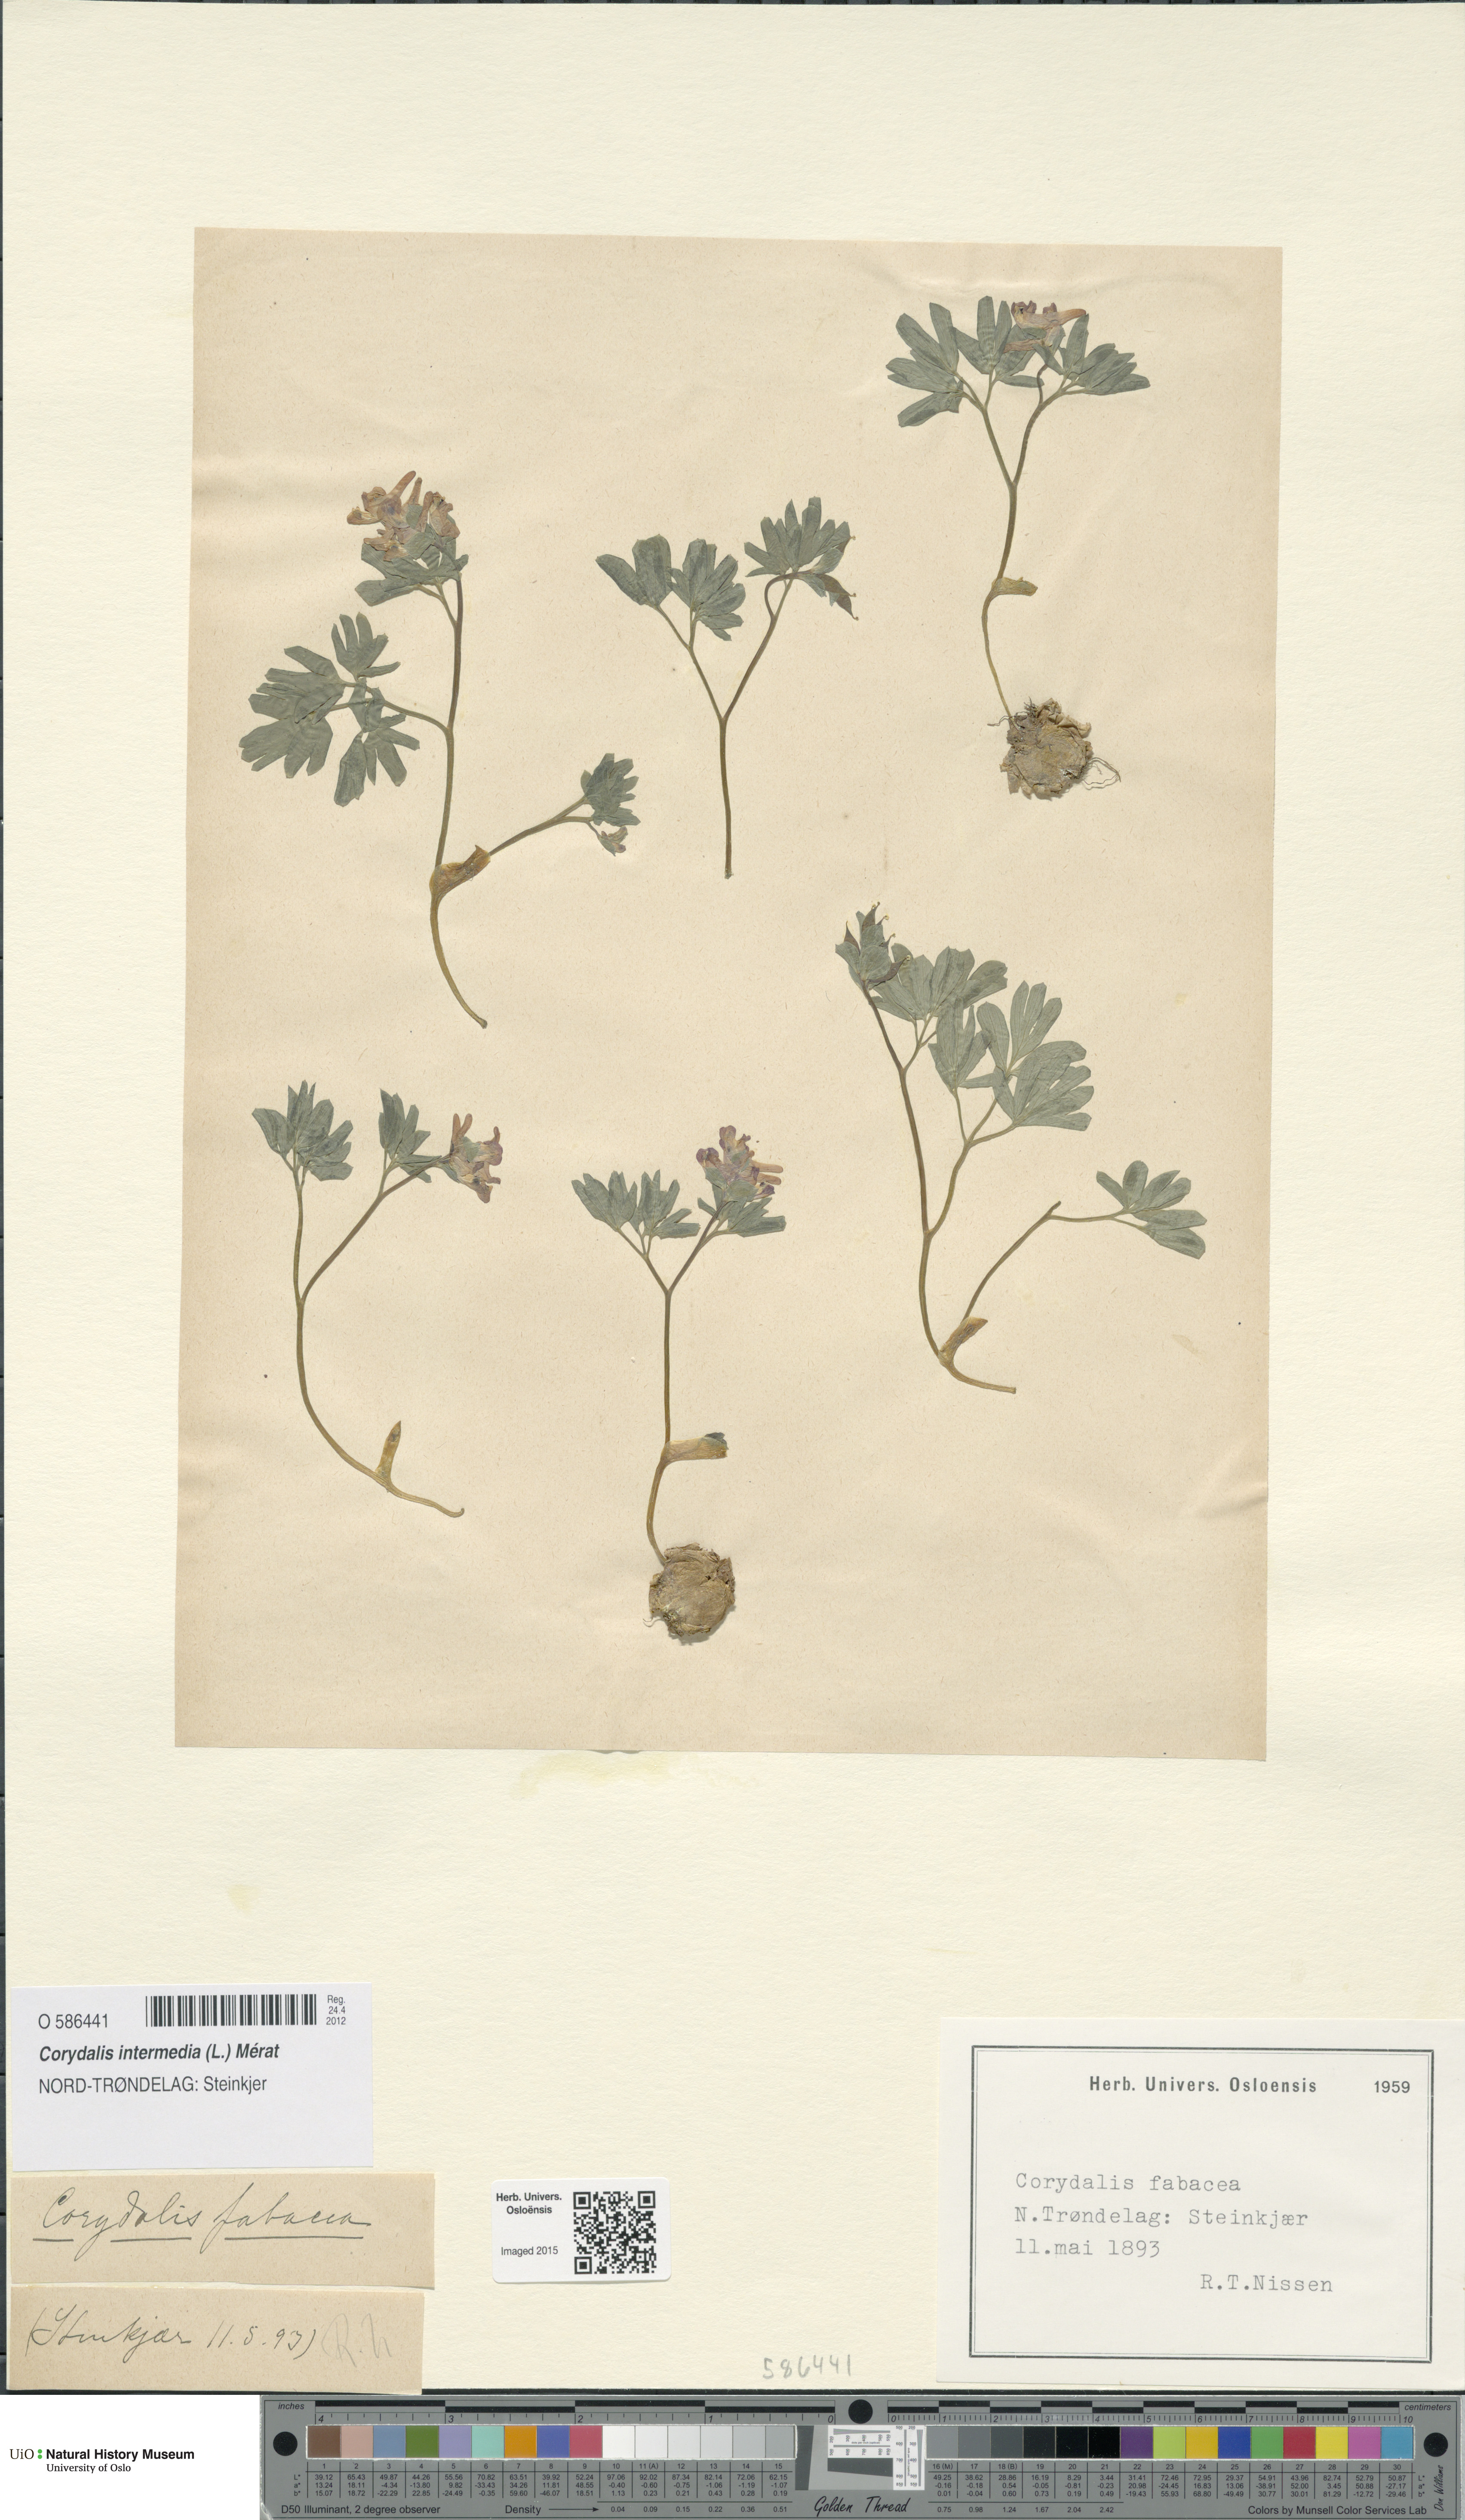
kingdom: Plantae
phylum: Tracheophyta
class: Magnoliopsida
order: Ranunculales
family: Papaveraceae
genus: Corydalis
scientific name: Corydalis intermedia
